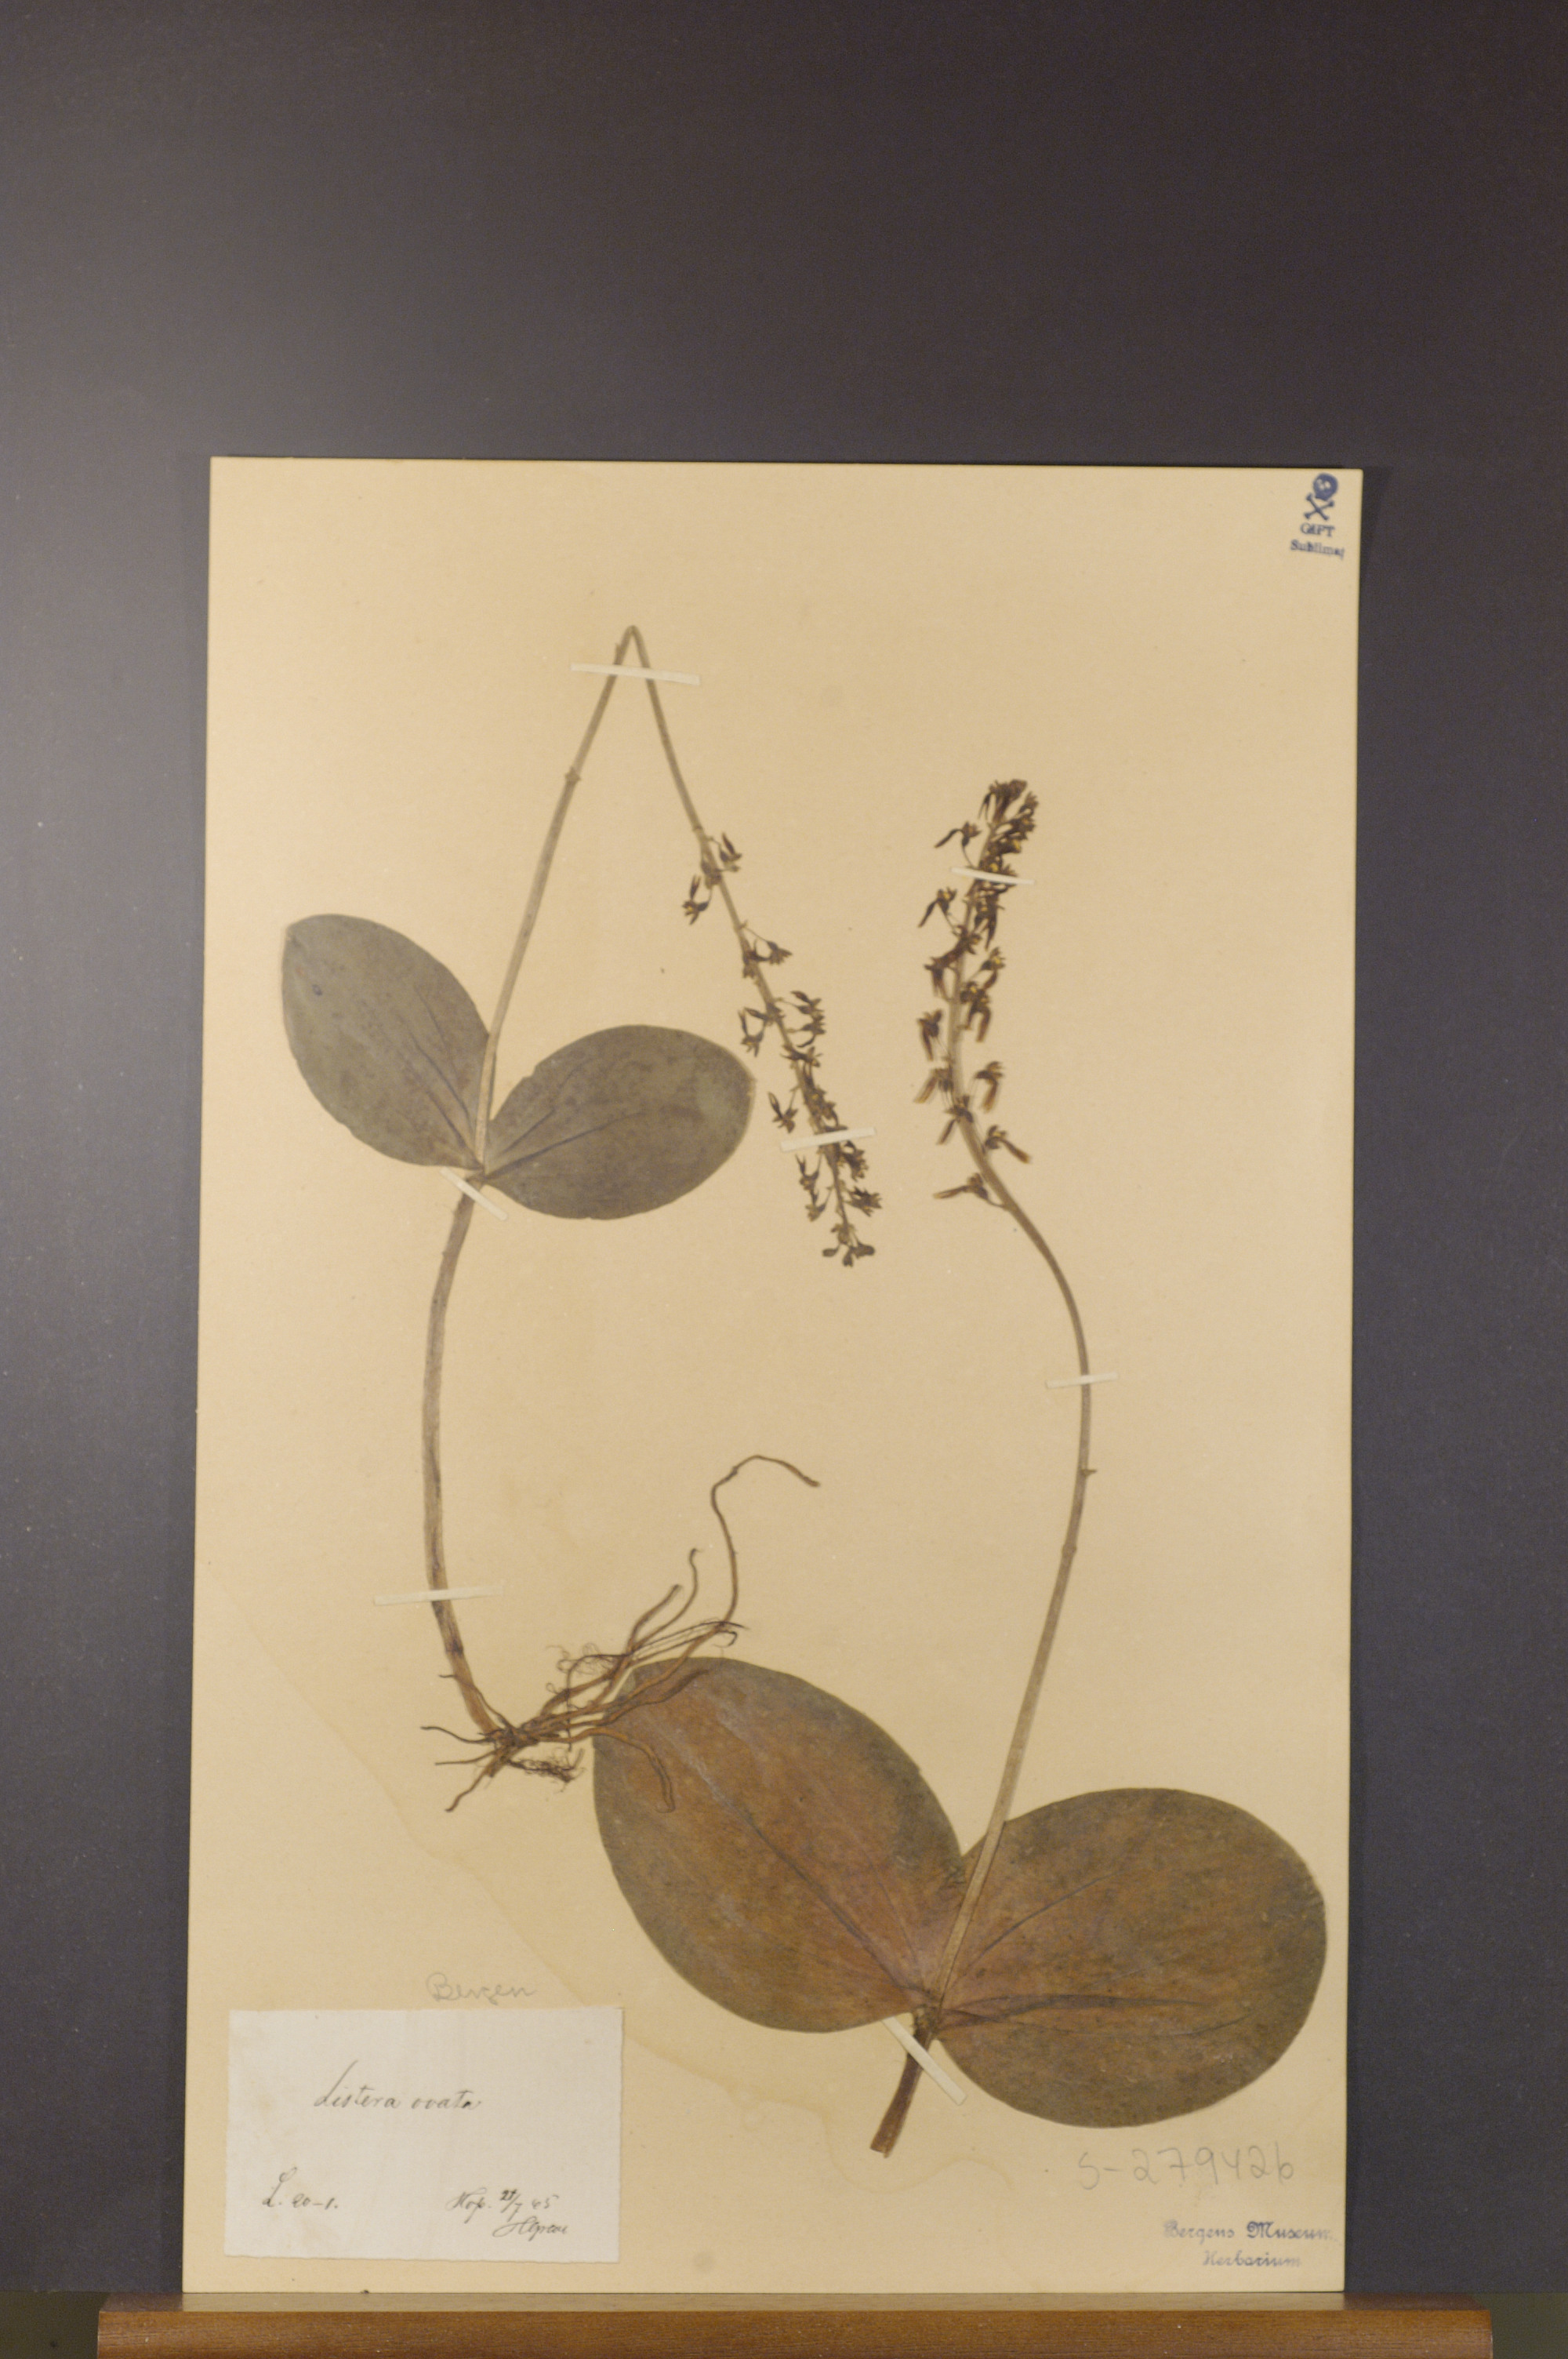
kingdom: Plantae
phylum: Tracheophyta
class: Liliopsida
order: Asparagales
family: Orchidaceae
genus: Neottia
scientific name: Neottia ovata
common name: Common twayblade
